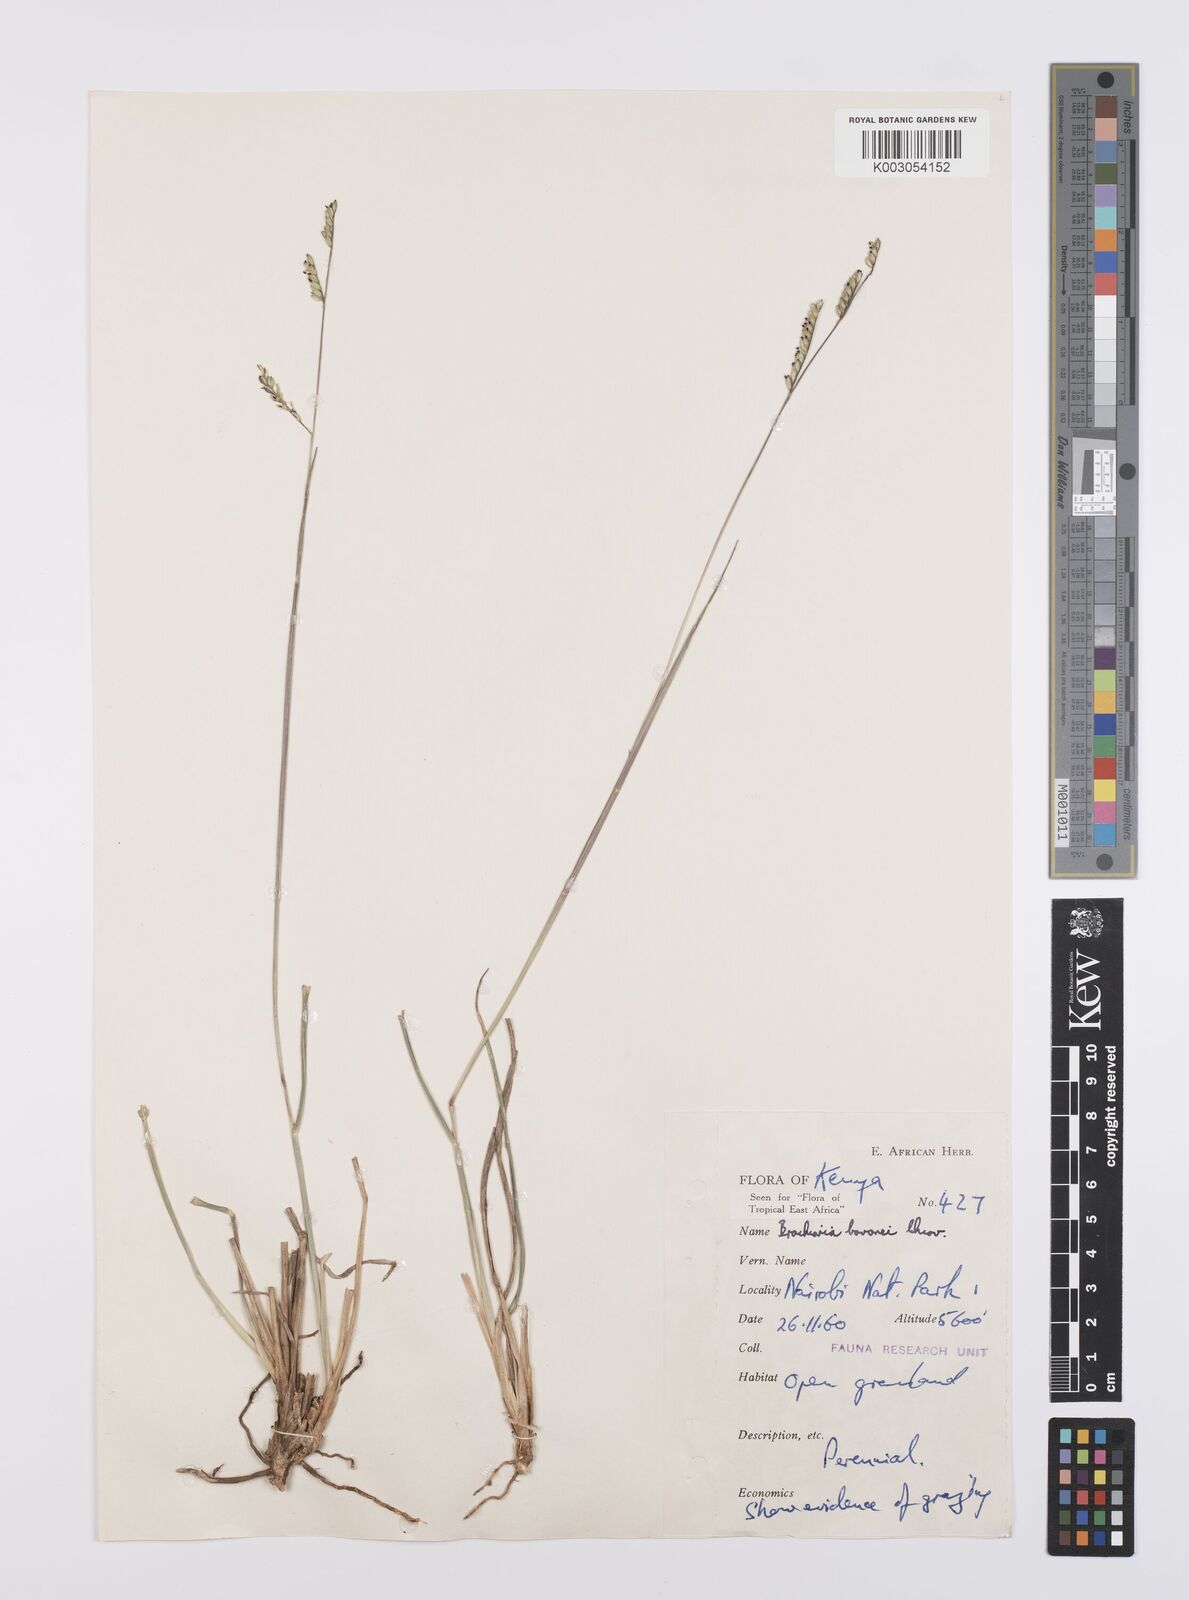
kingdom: Plantae
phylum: Tracheophyta
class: Liliopsida
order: Poales
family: Poaceae
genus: Urochloa
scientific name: Urochloa bovonei
